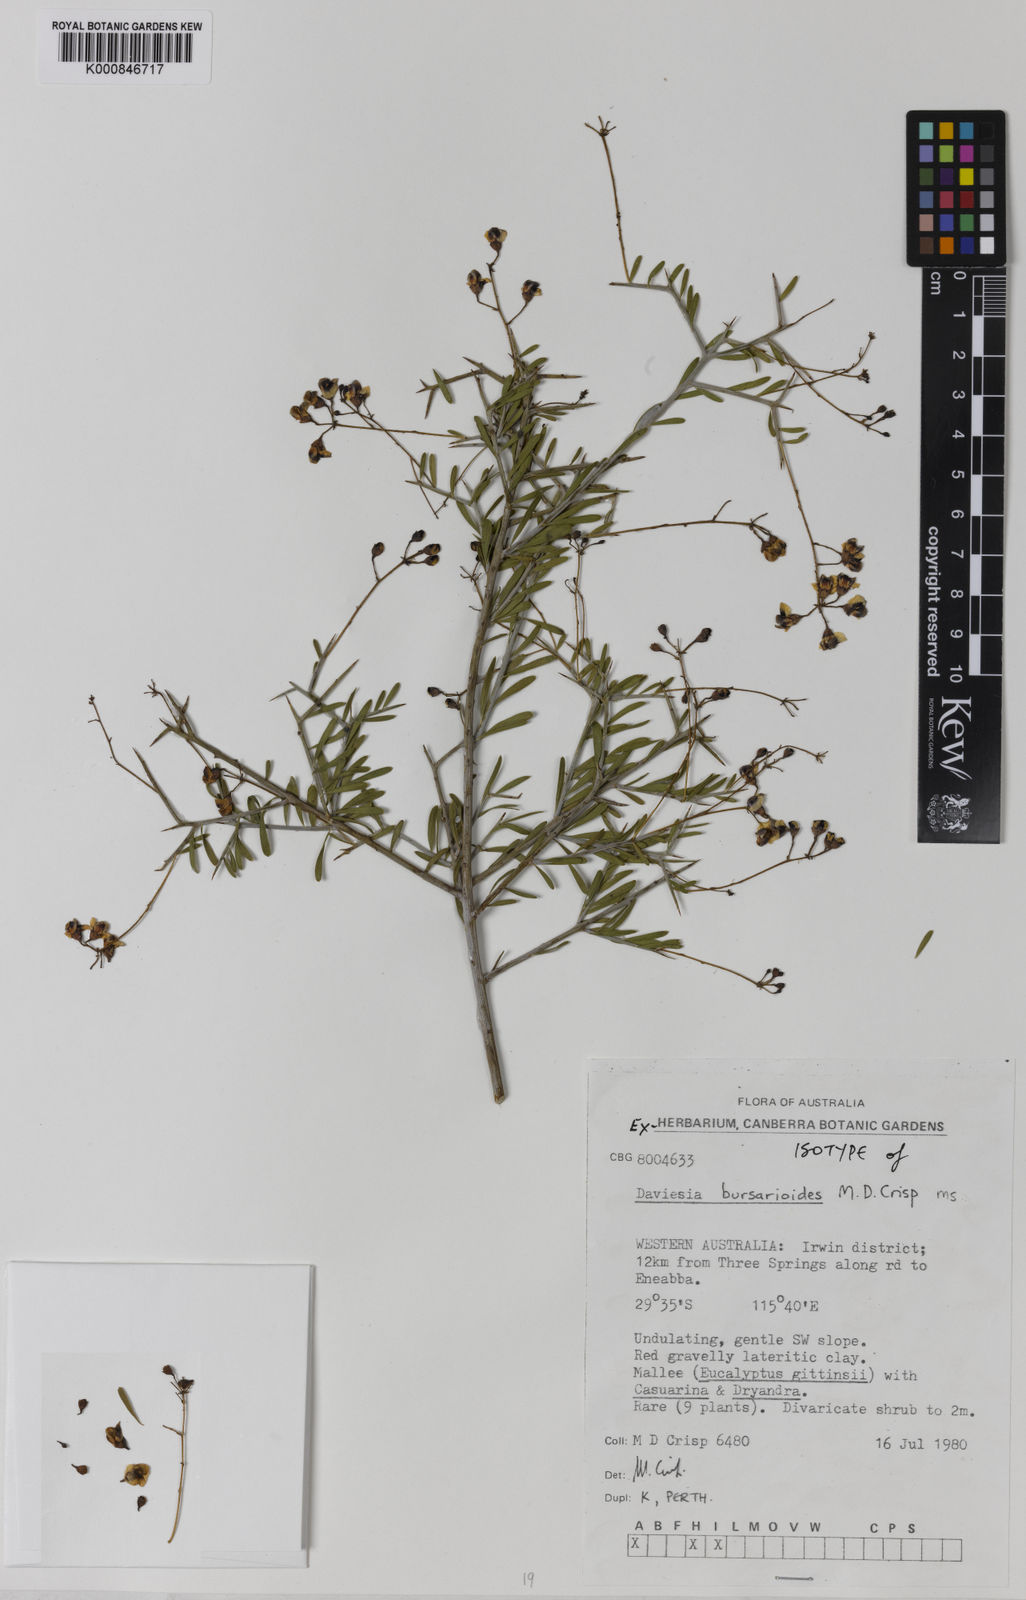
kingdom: Plantae
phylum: Tracheophyta
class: Magnoliopsida
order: Fabales
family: Fabaceae
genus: Daviesia
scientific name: Daviesia bursarioides
